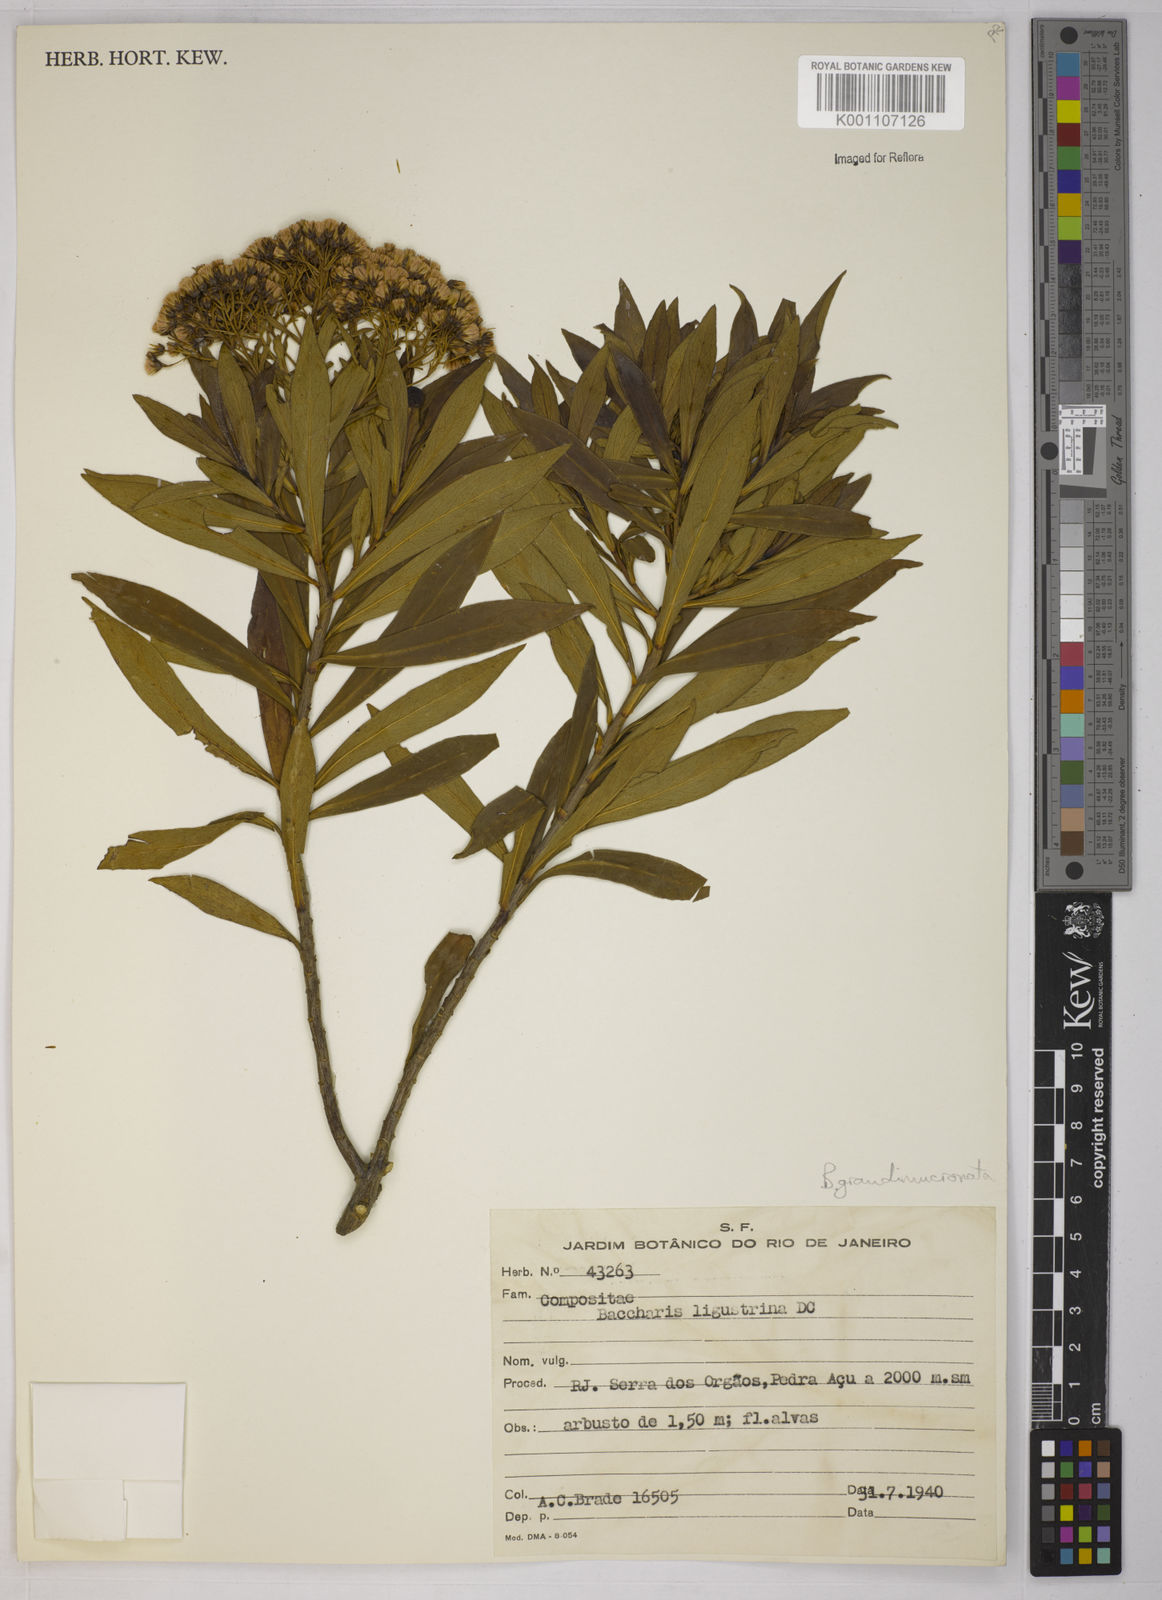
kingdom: Plantae
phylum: Tracheophyta
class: Magnoliopsida
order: Asterales
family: Asteraceae
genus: Baccharis
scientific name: Baccharis grandimucronata
